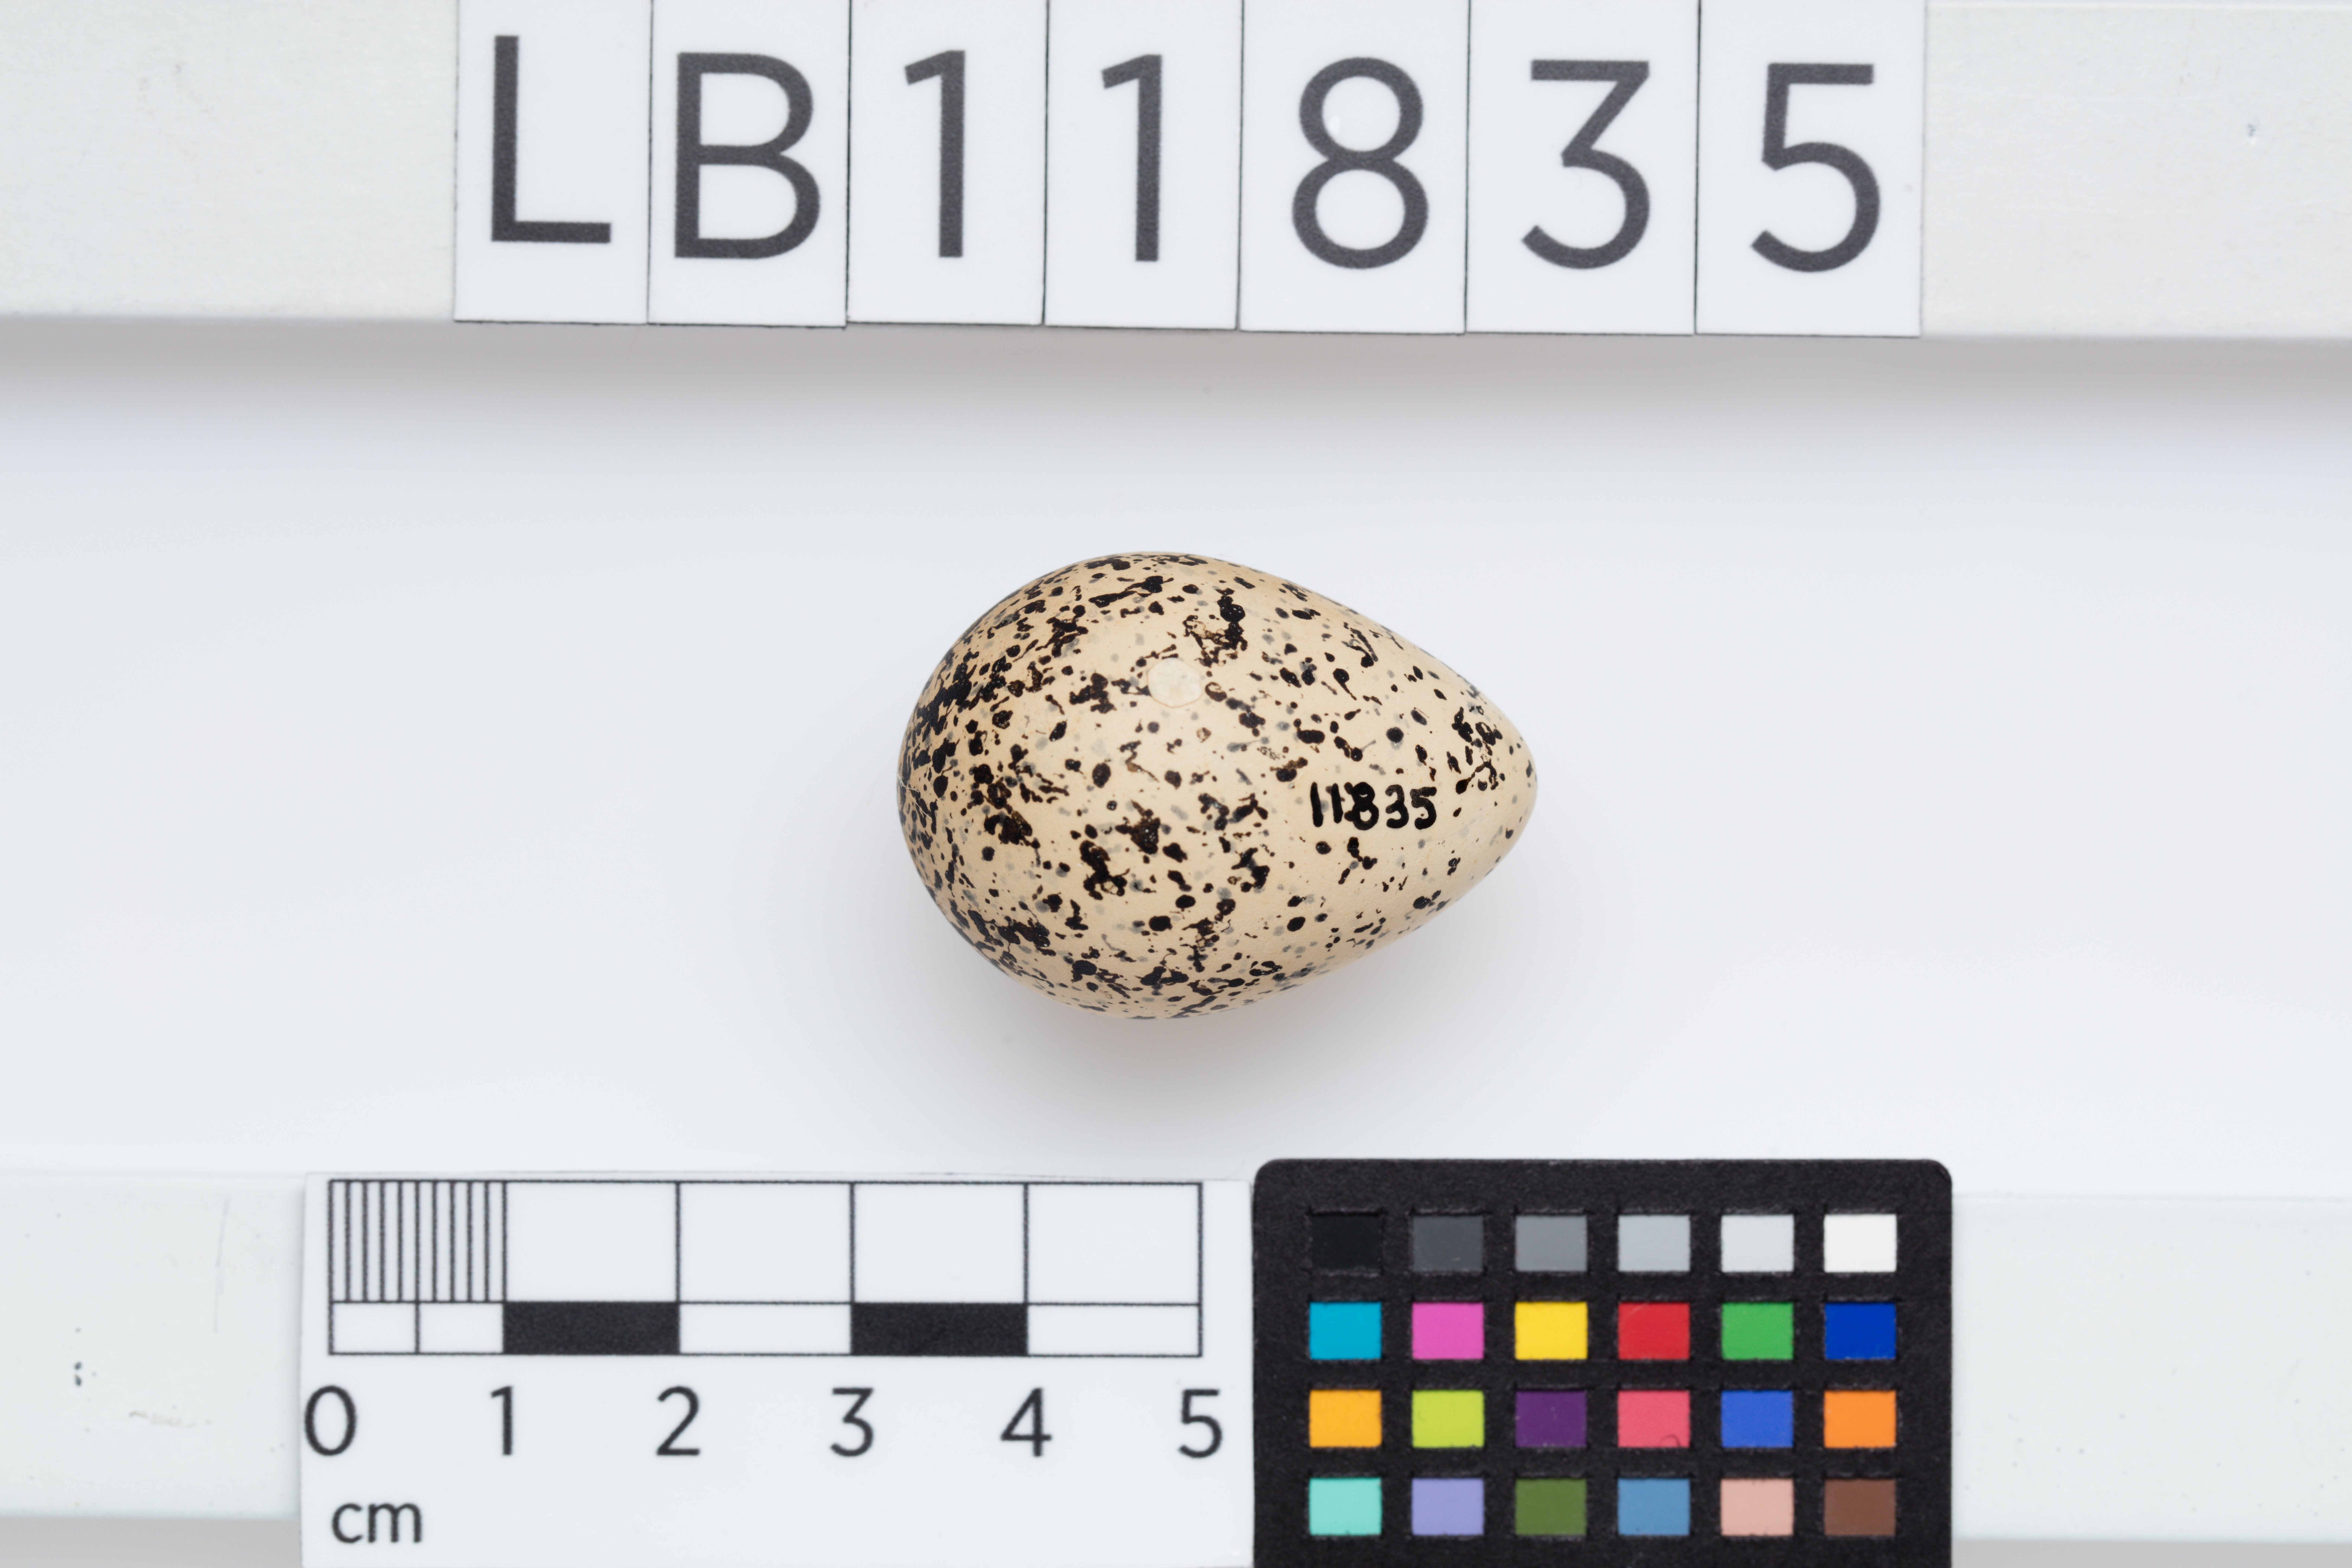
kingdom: Animalia
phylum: Chordata
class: Aves
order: Charadriiformes
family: Charadriidae
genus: Peltohyas
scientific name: Peltohyas australis
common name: Inland dotterel
